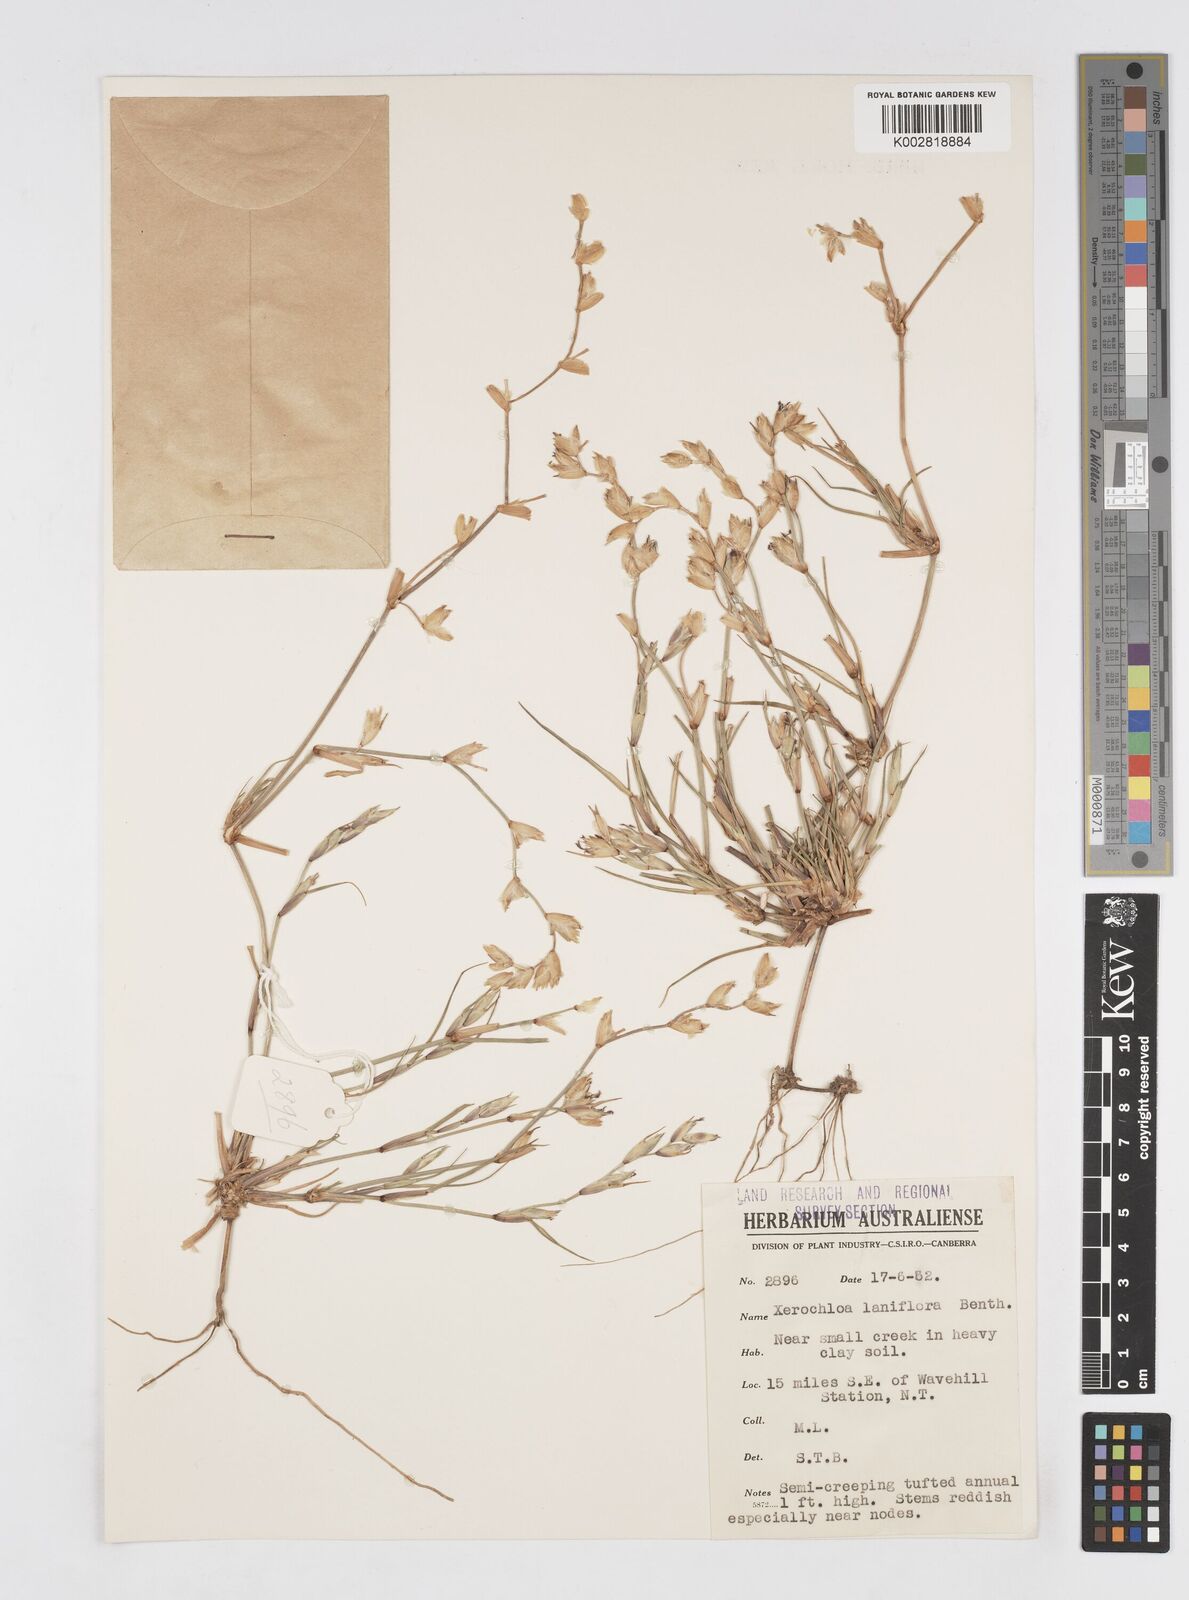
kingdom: Plantae
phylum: Tracheophyta
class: Liliopsida
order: Poales
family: Poaceae
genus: Xerochloa
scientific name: Xerochloa laniflora
